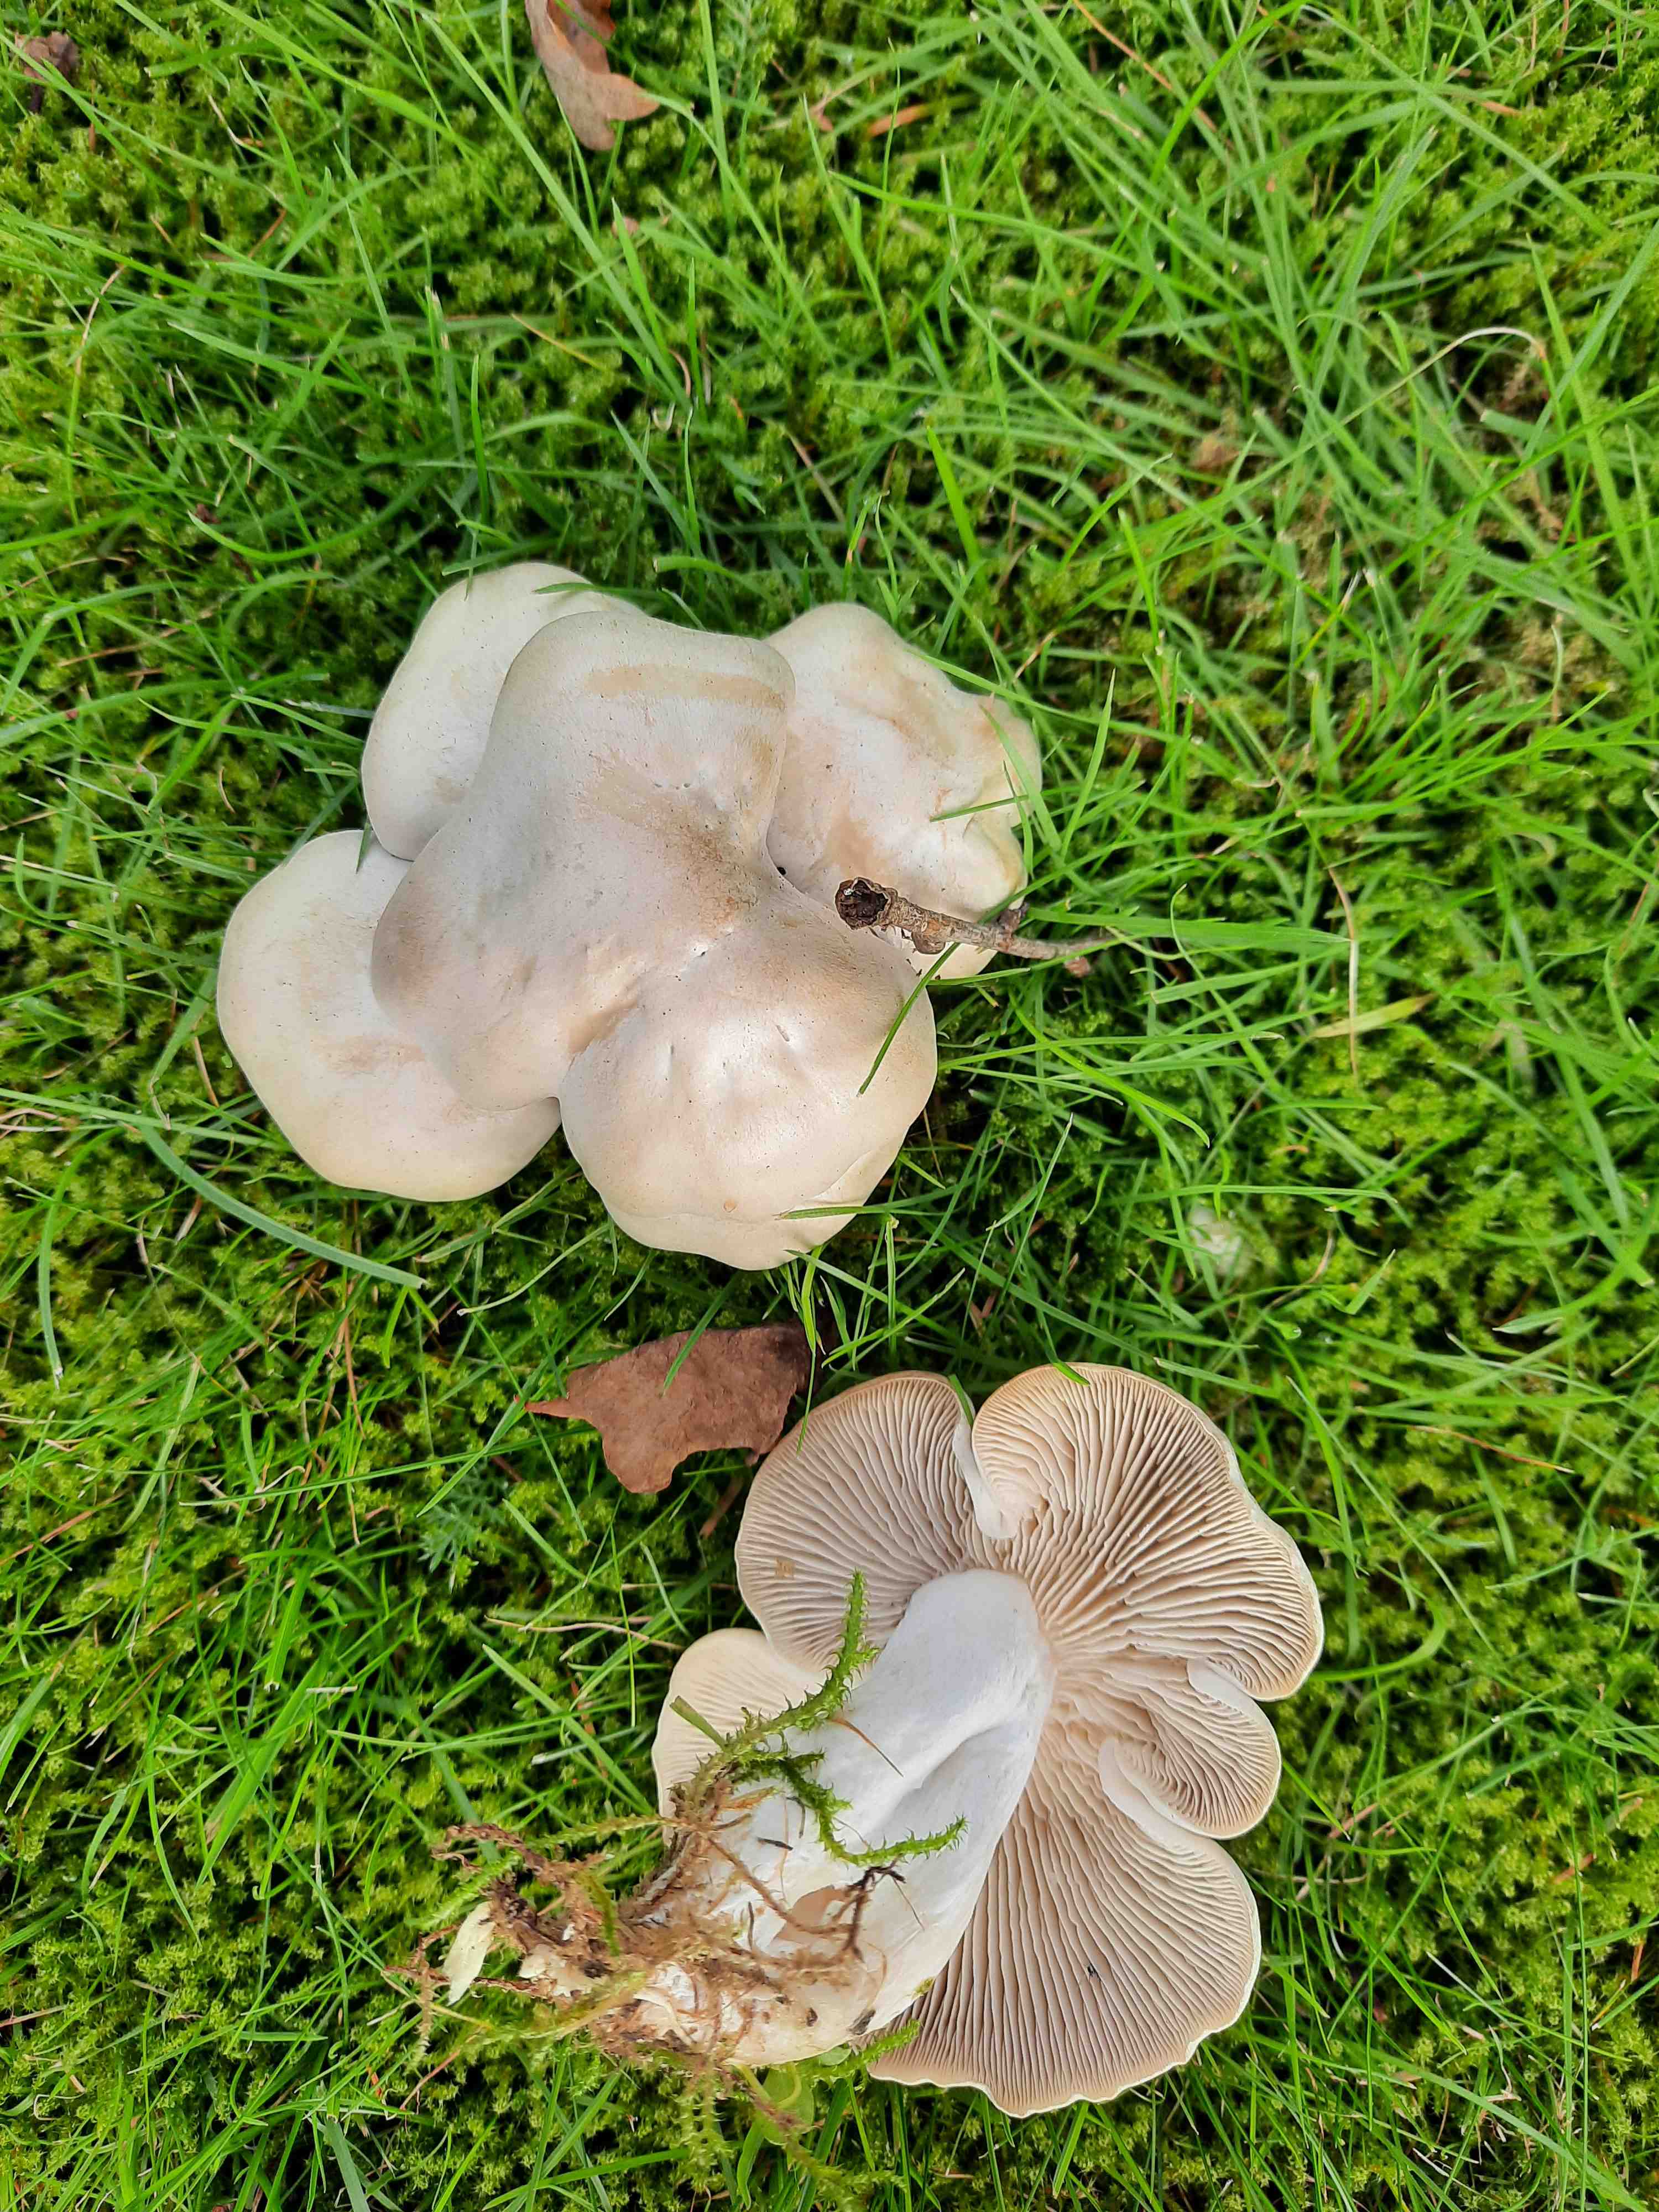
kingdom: Fungi
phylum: Basidiomycota
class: Agaricomycetes
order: Agaricales
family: Tricholomataceae
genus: Leucocybe
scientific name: Leucocybe connata
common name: knippe-tragthat
